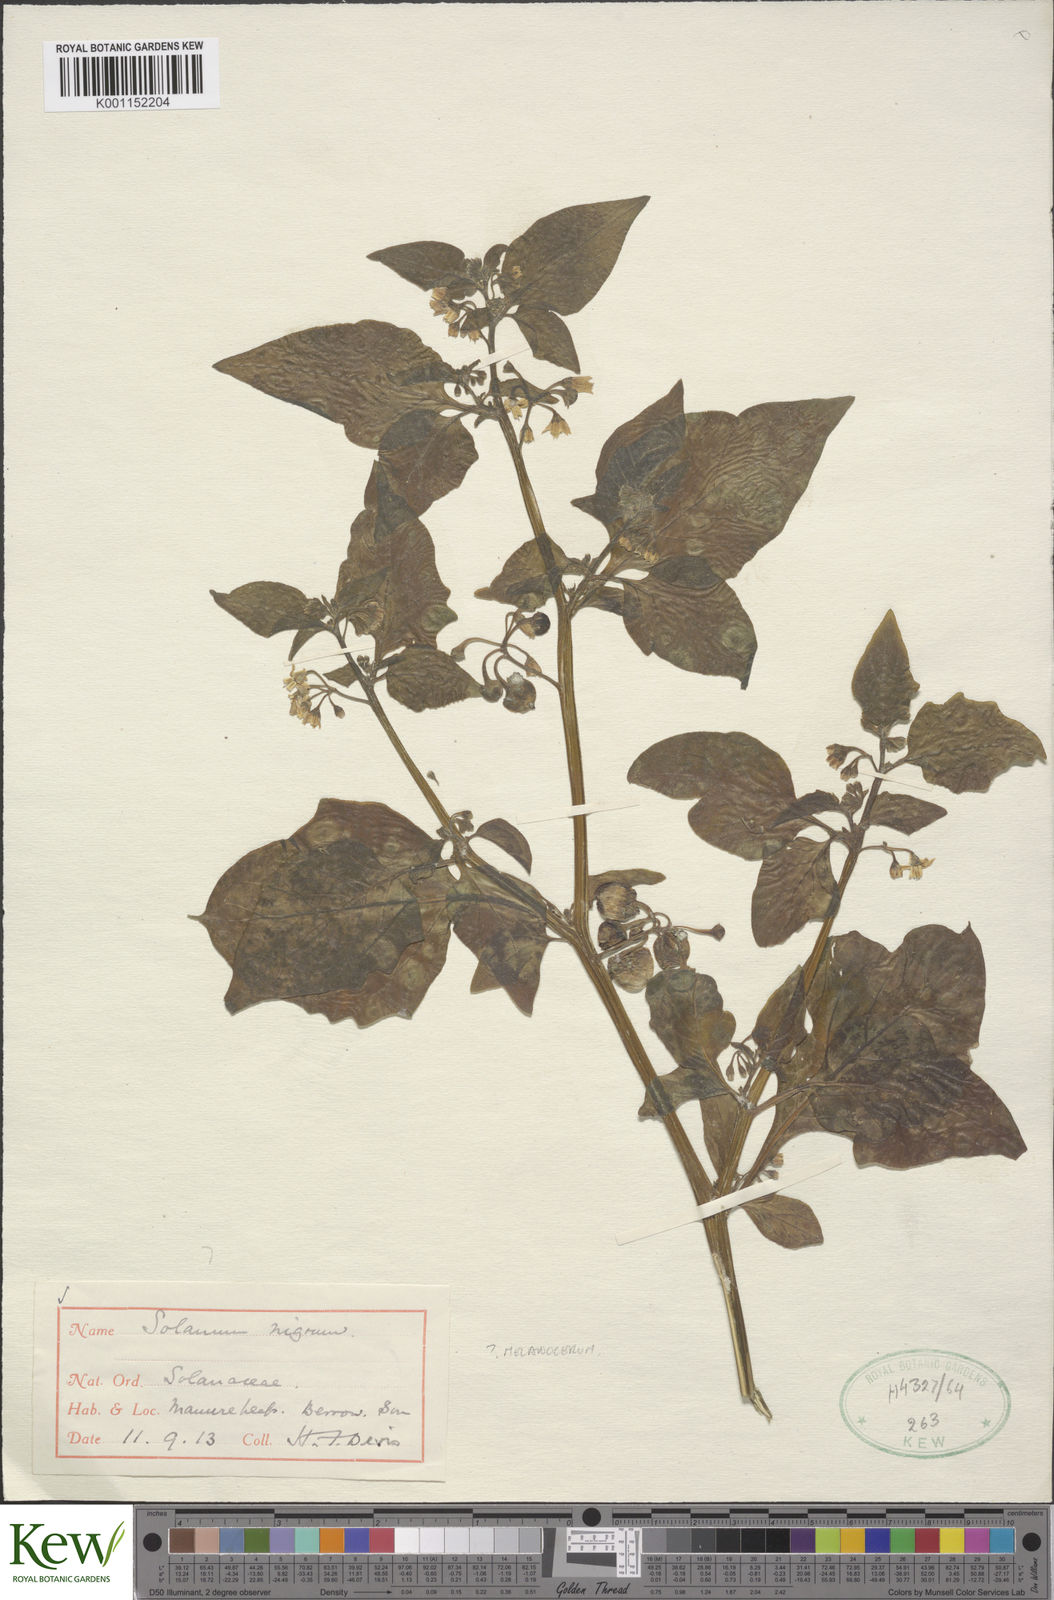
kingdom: Plantae
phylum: Tracheophyta
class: Magnoliopsida
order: Solanales
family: Solanaceae
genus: Solanum
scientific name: Solanum scabrum
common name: Garden-huckleberry
